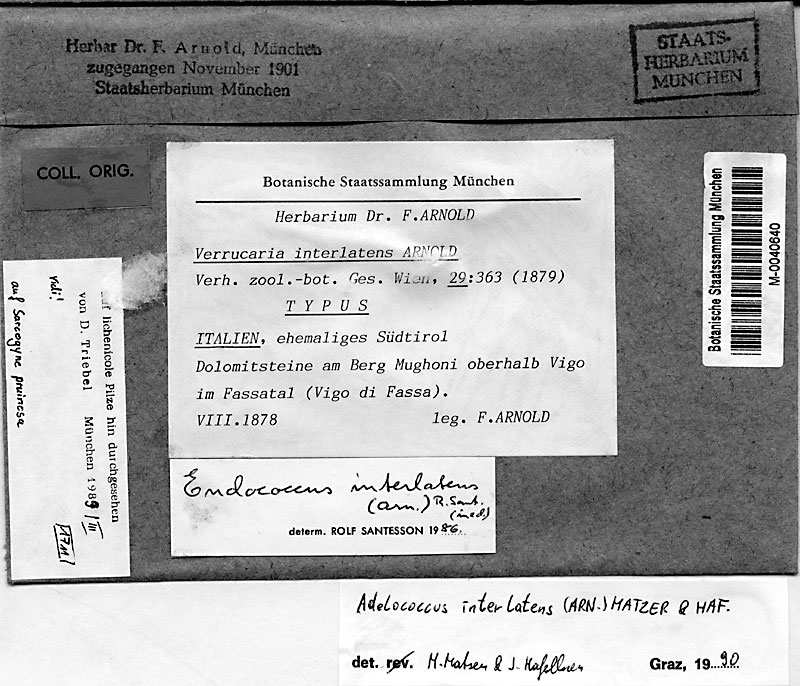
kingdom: Fungi
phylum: Ascomycota
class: Eurotiomycetes
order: Verrucariales
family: Adelococcaceae
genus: Adelococcus
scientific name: Adelococcus interlatens
